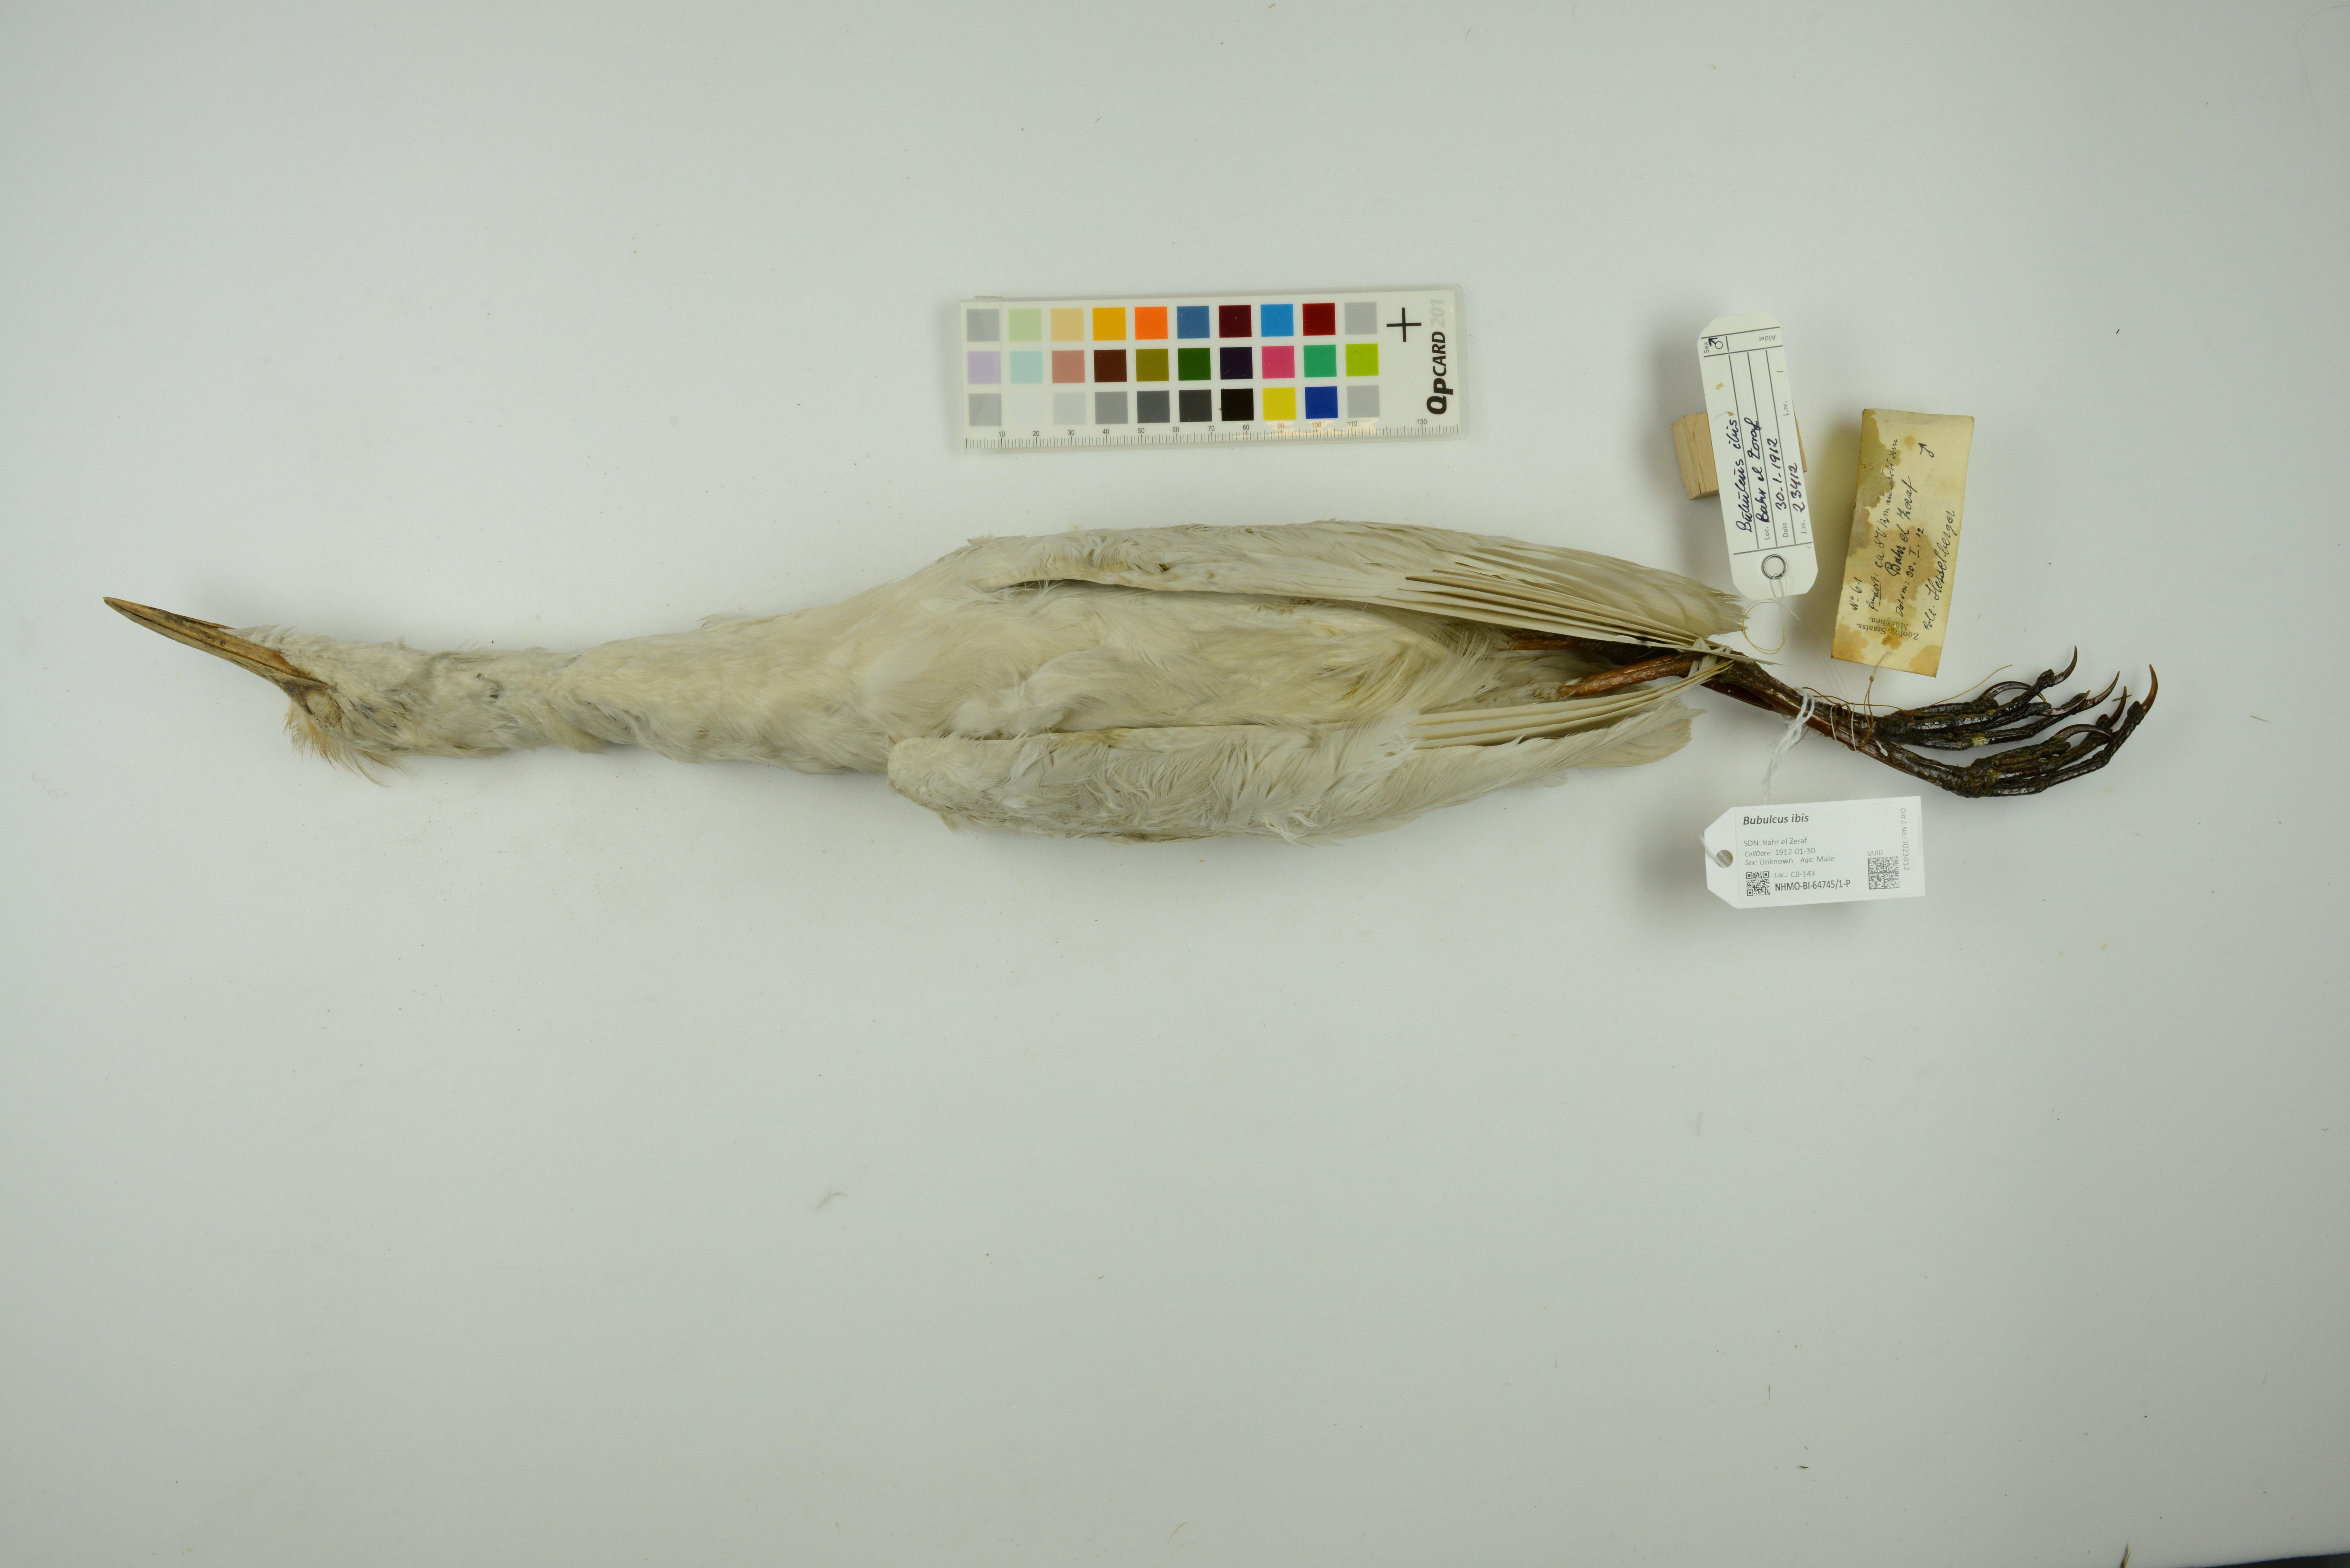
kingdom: Animalia
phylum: Chordata
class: Aves
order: Pelecaniformes
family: Ardeidae
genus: Bubulcus
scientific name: Bubulcus ibis
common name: Cattle egret
